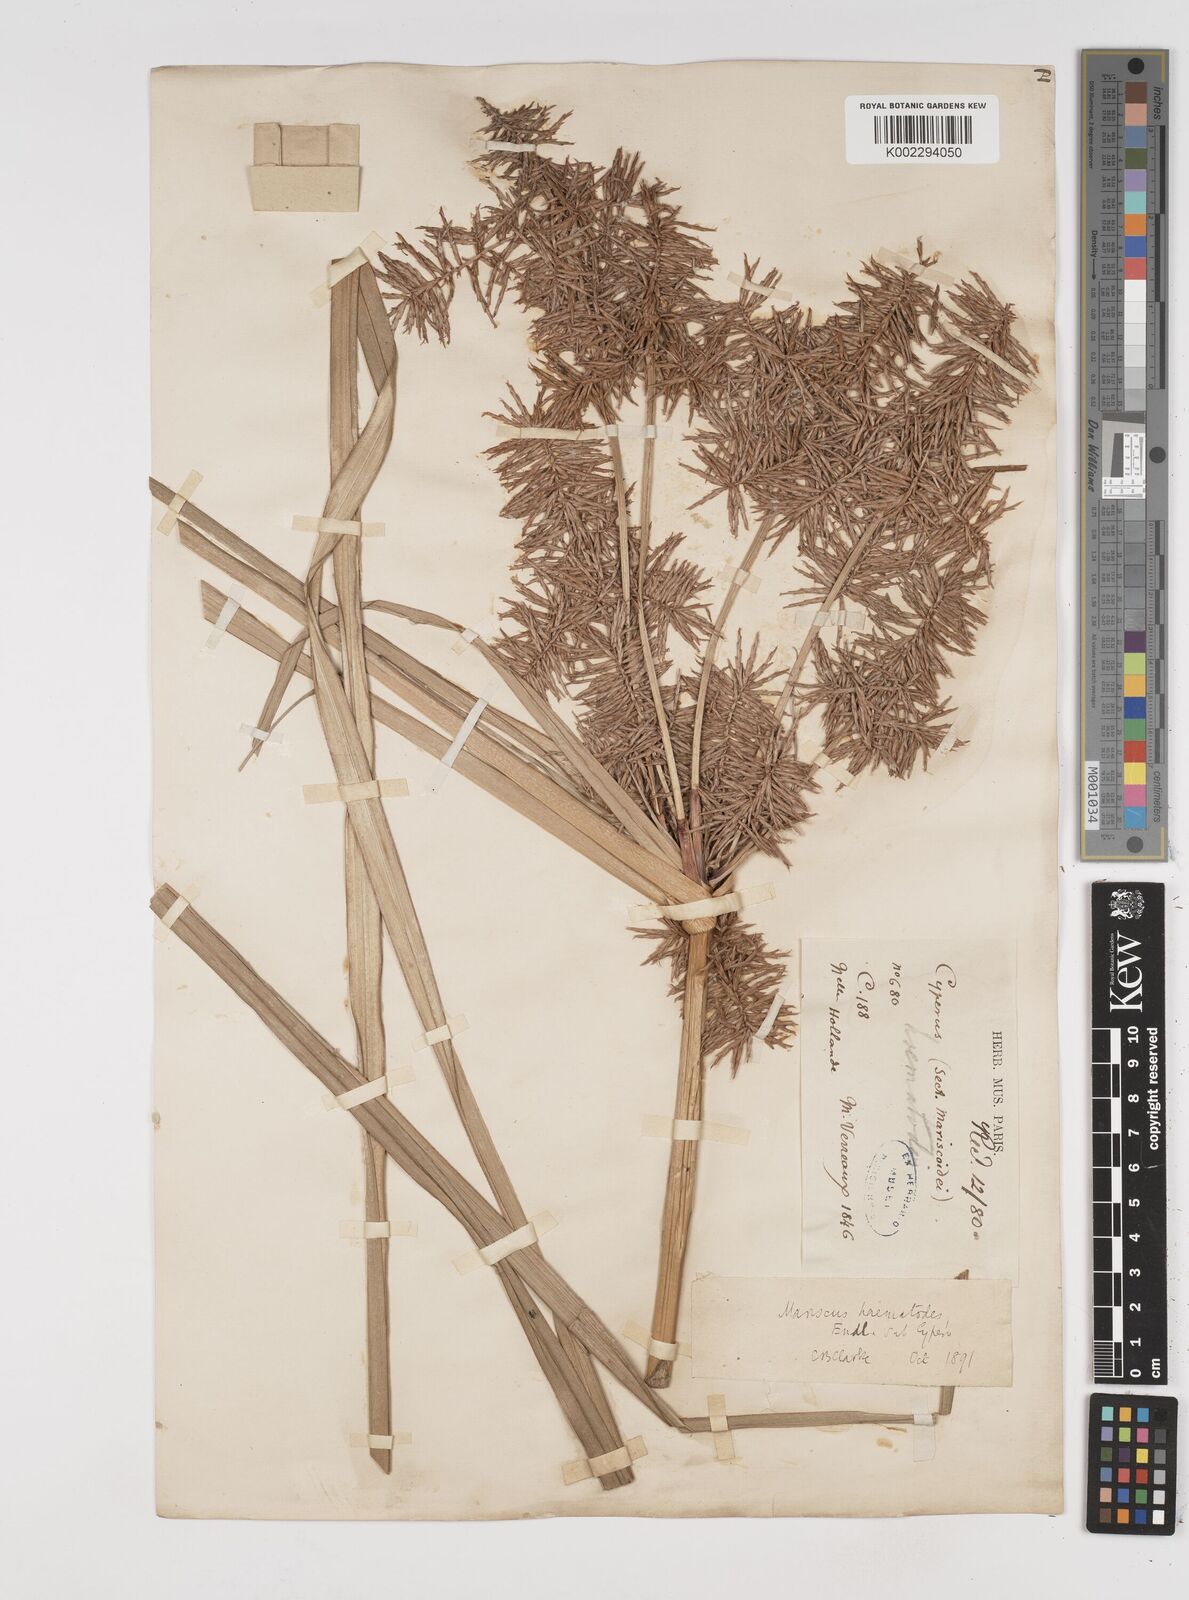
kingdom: Plantae
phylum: Tracheophyta
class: Liliopsida
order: Poales
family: Cyperaceae
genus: Cyperus
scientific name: Cyperus lucidus
